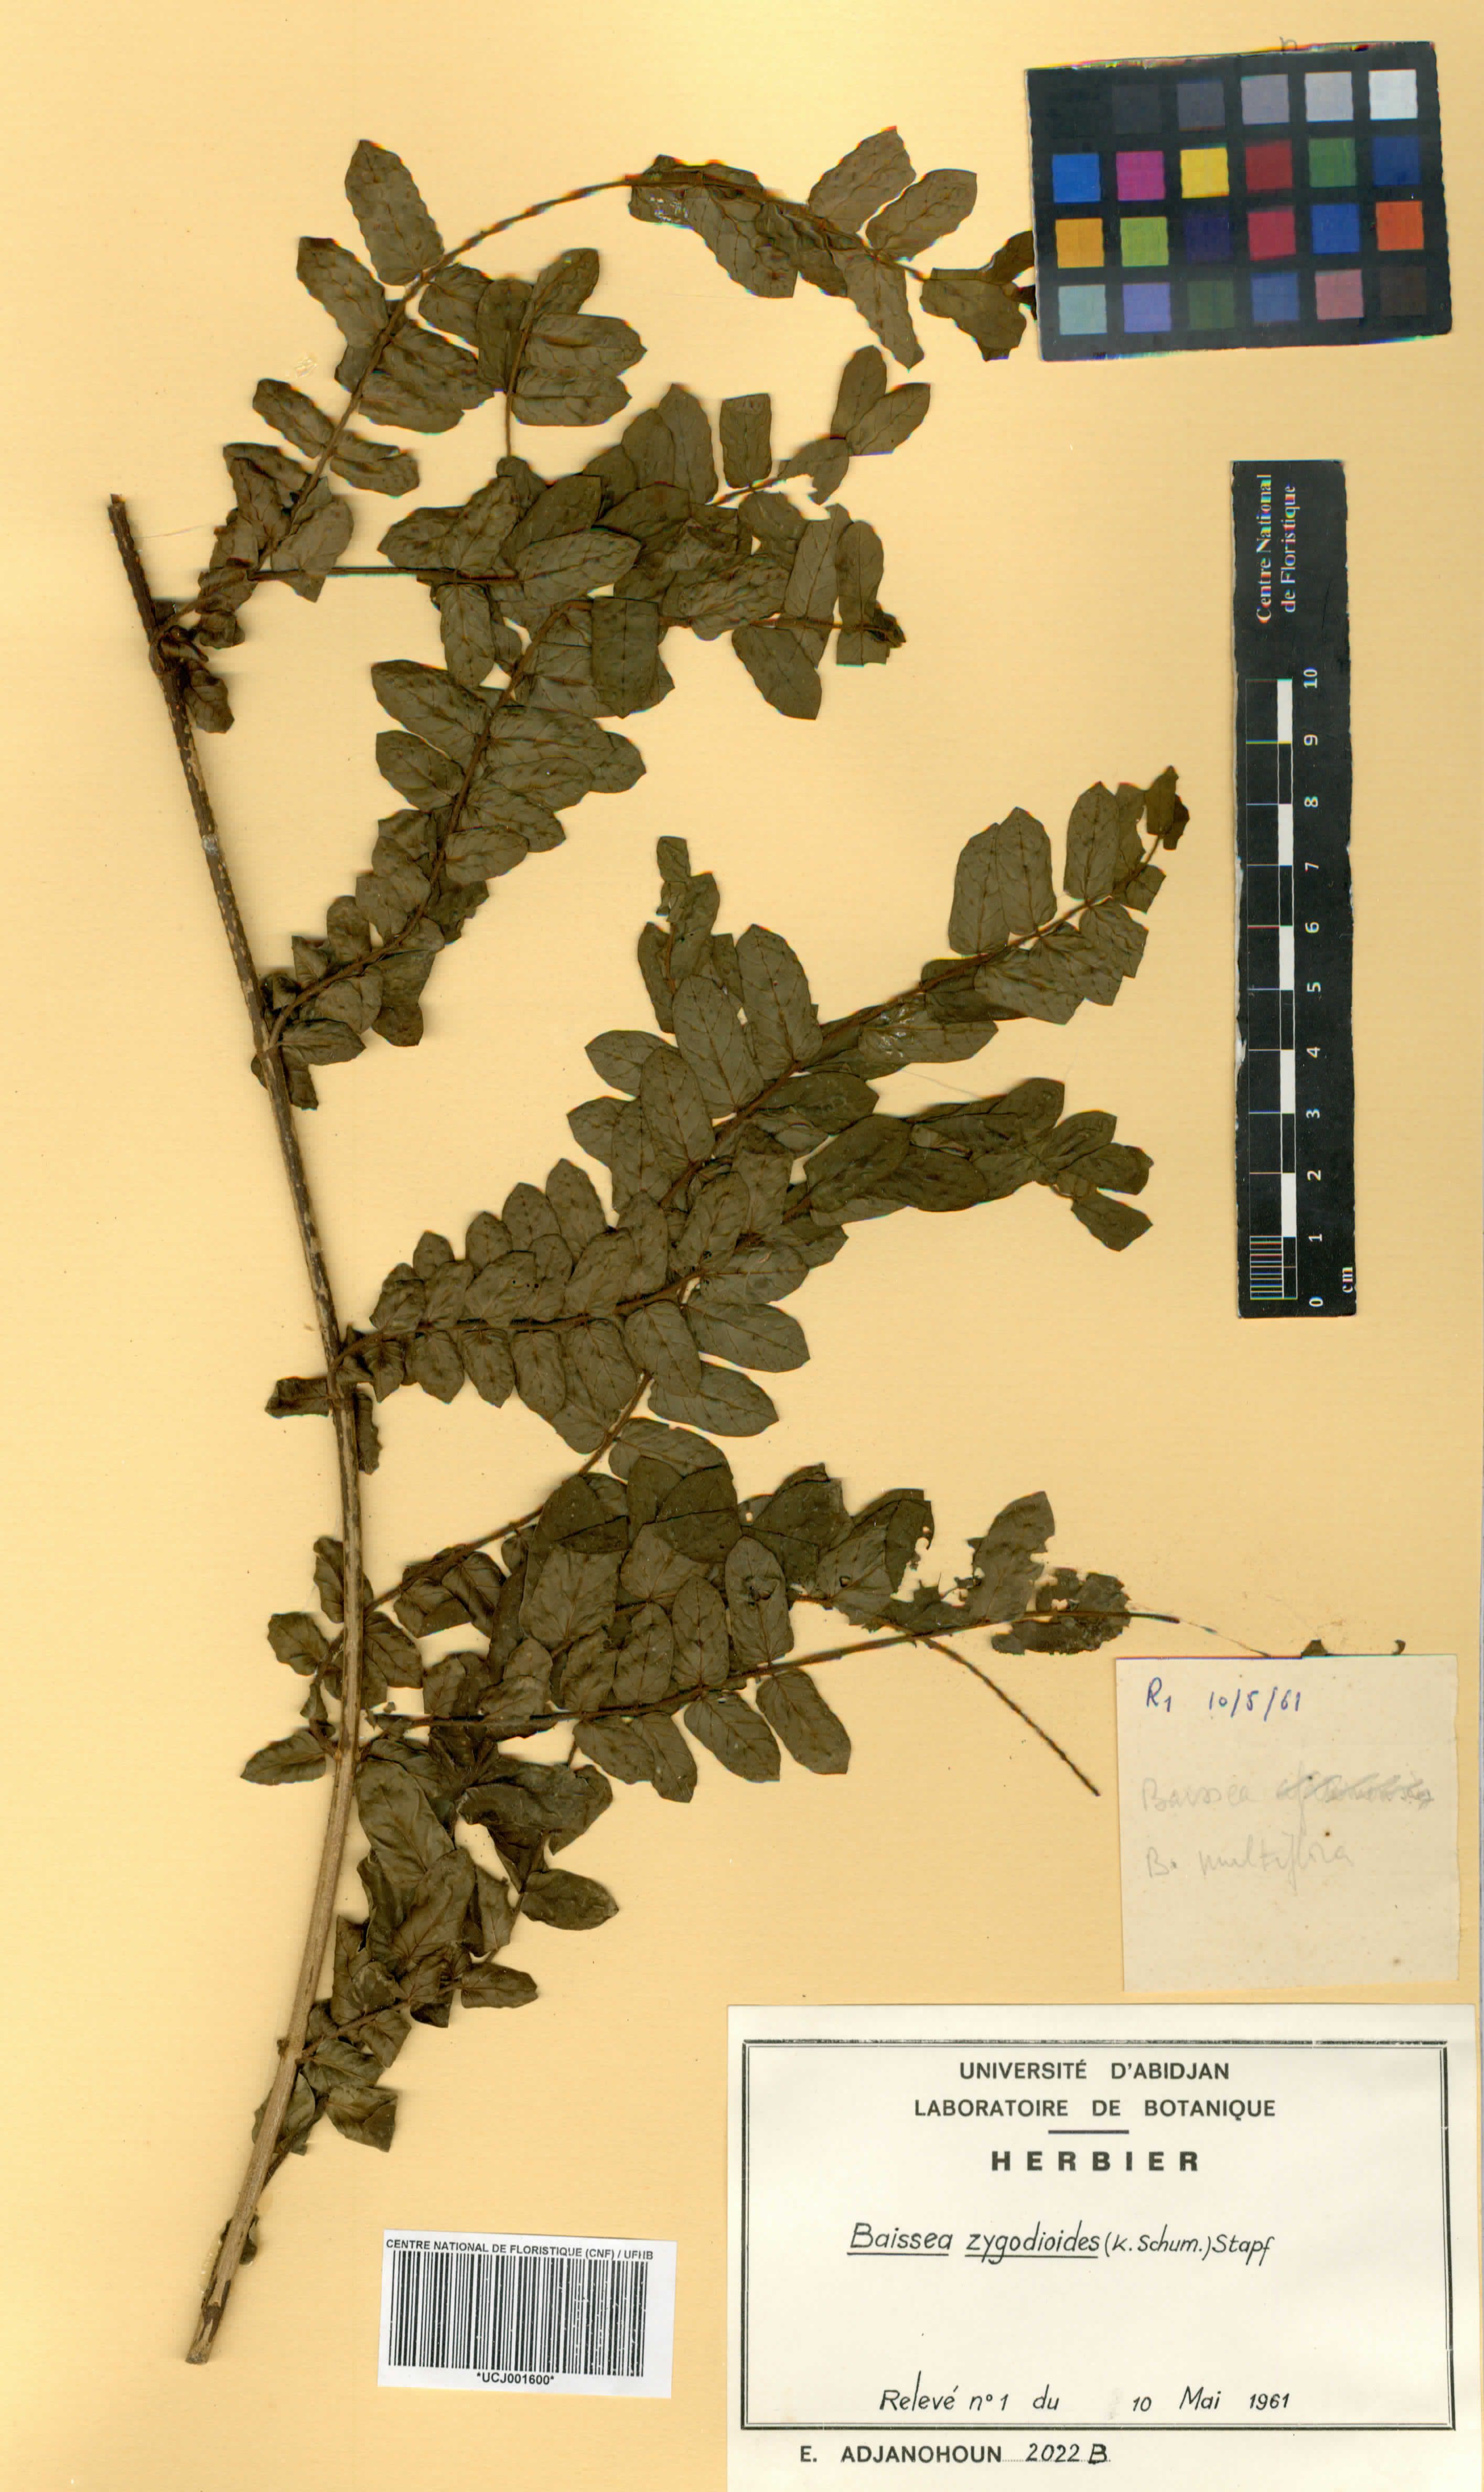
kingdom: Plantae
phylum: Tracheophyta
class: Magnoliopsida
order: Gentianales
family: Apocynaceae
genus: Baissea
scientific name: Baissea zygodioides
